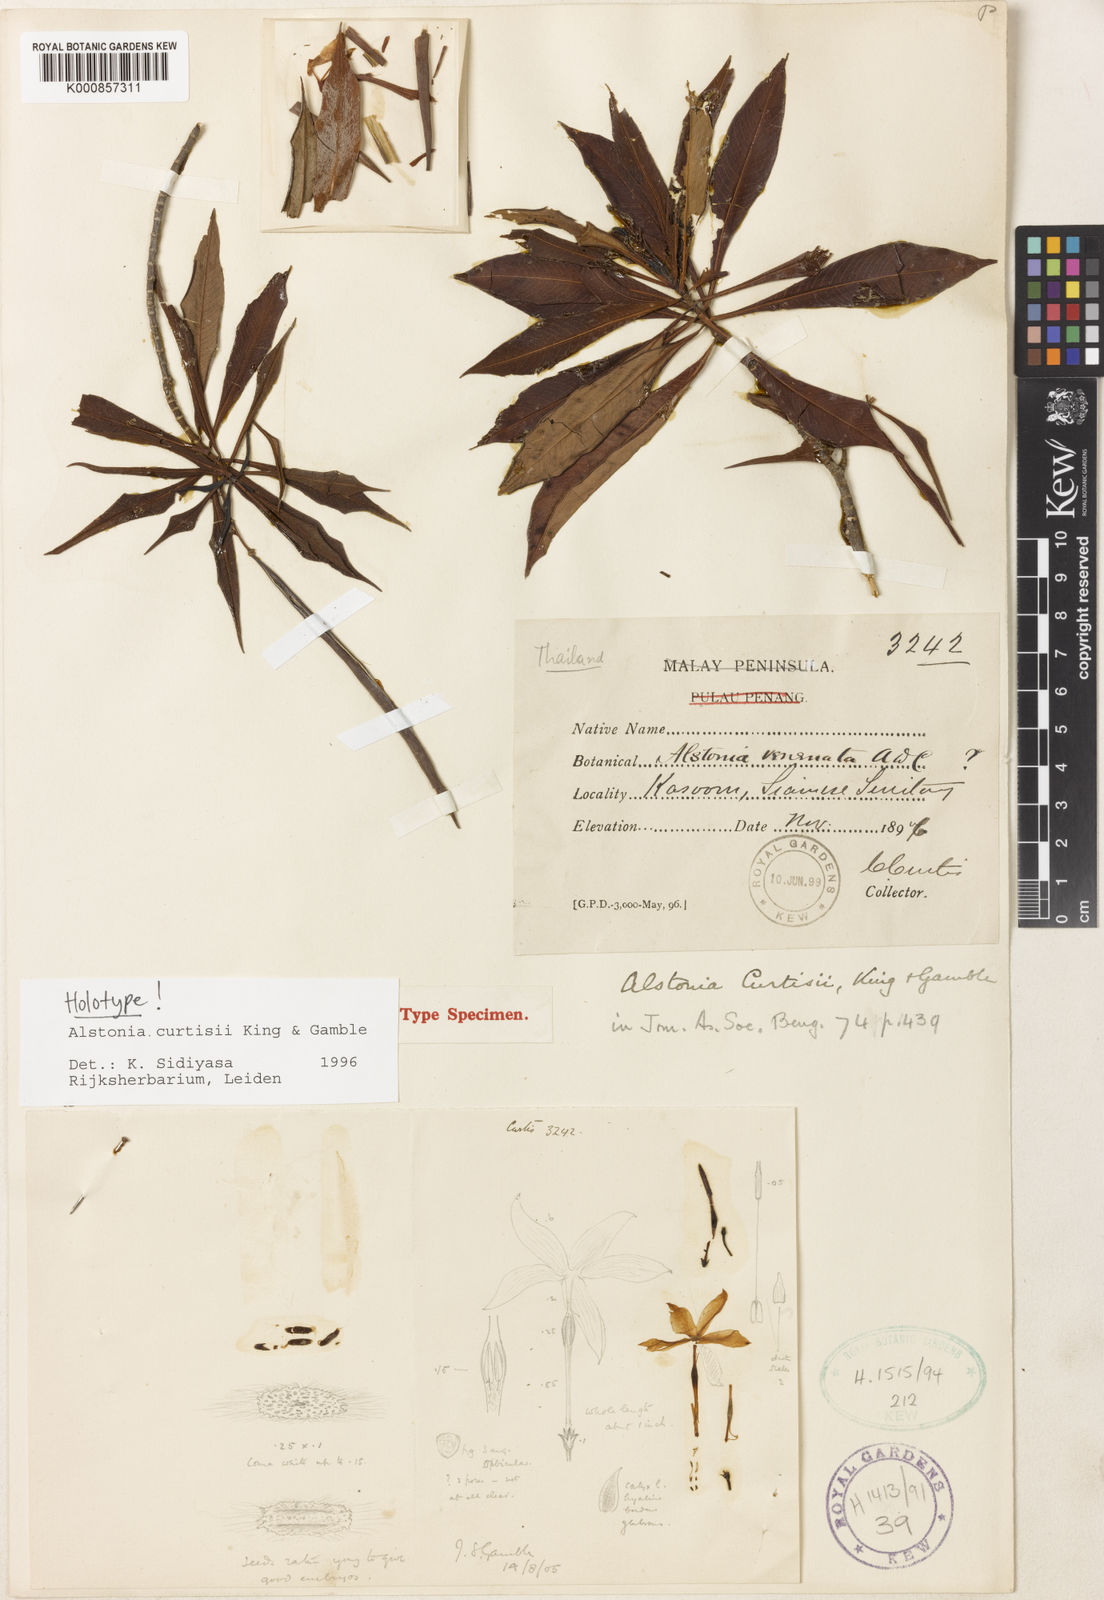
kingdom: Plantae
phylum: Tracheophyta
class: Magnoliopsida
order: Gentianales
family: Apocynaceae
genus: Alstonia
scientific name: Alstonia curtisii
